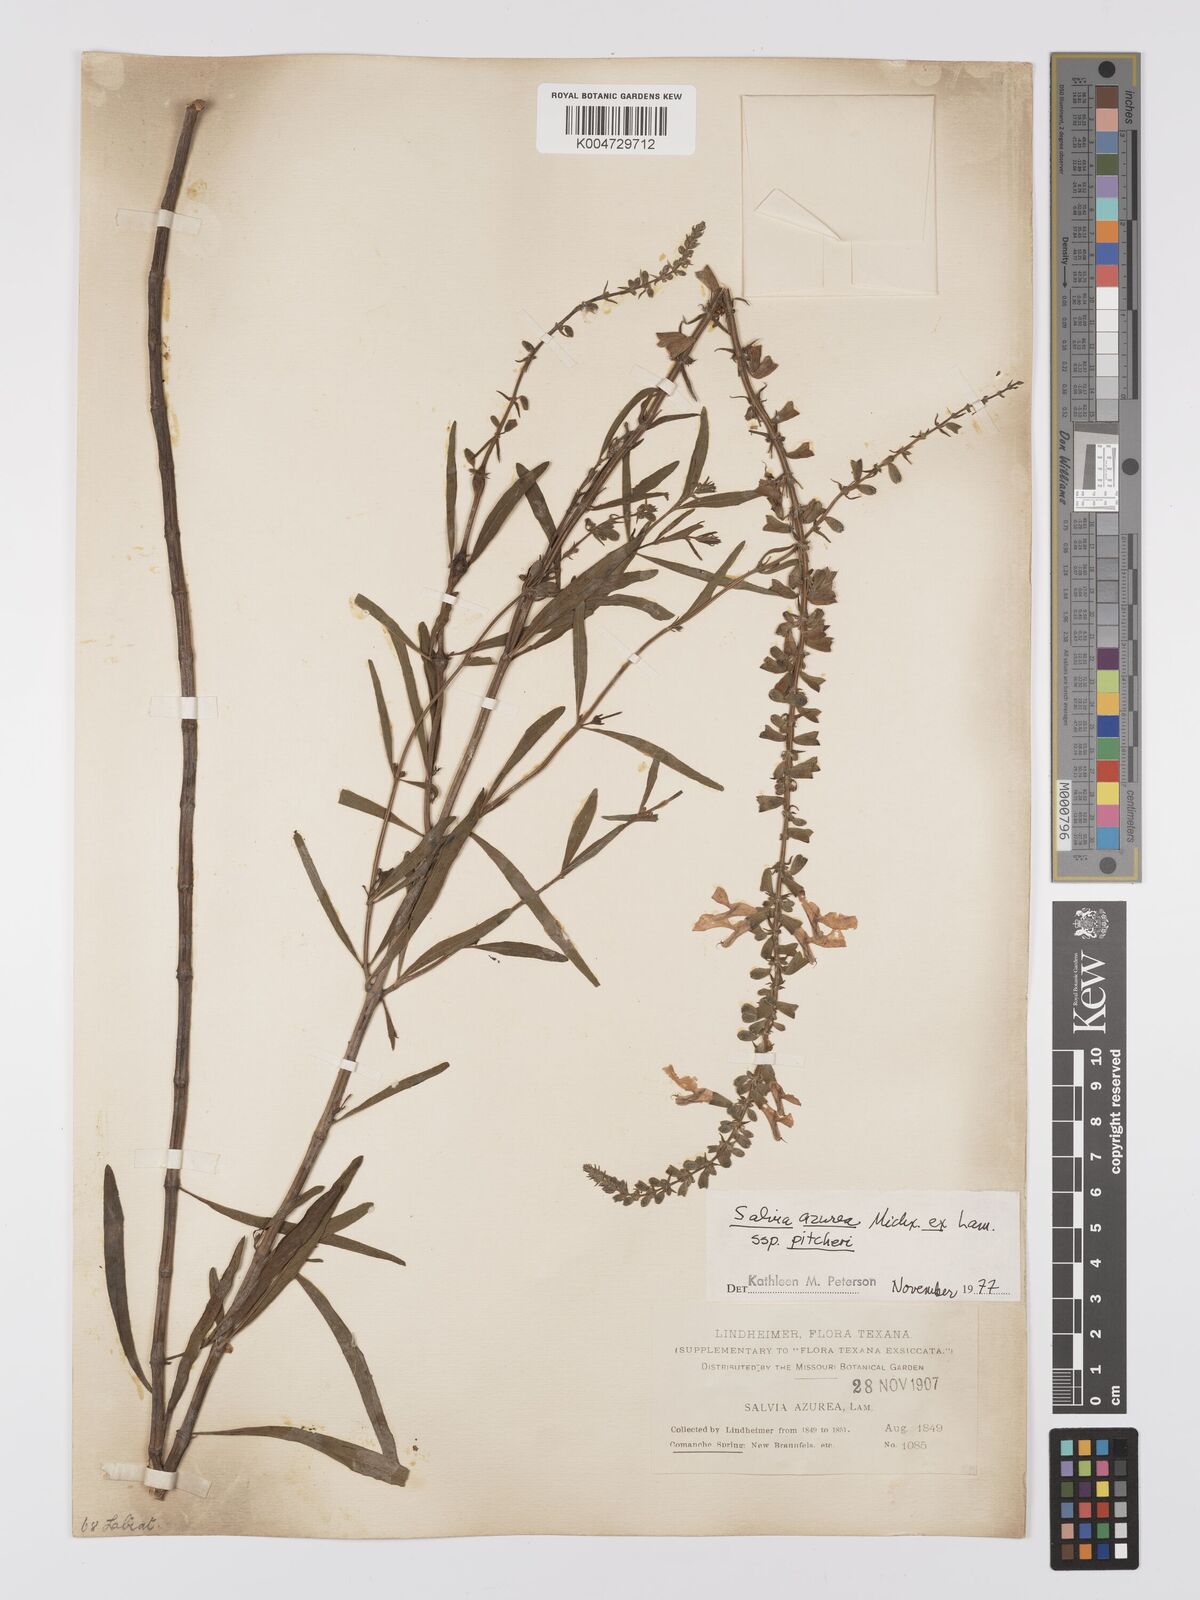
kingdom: Plantae
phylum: Tracheophyta
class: Magnoliopsida
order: Lamiales
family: Lamiaceae
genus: Salvia
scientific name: Salvia azurea
